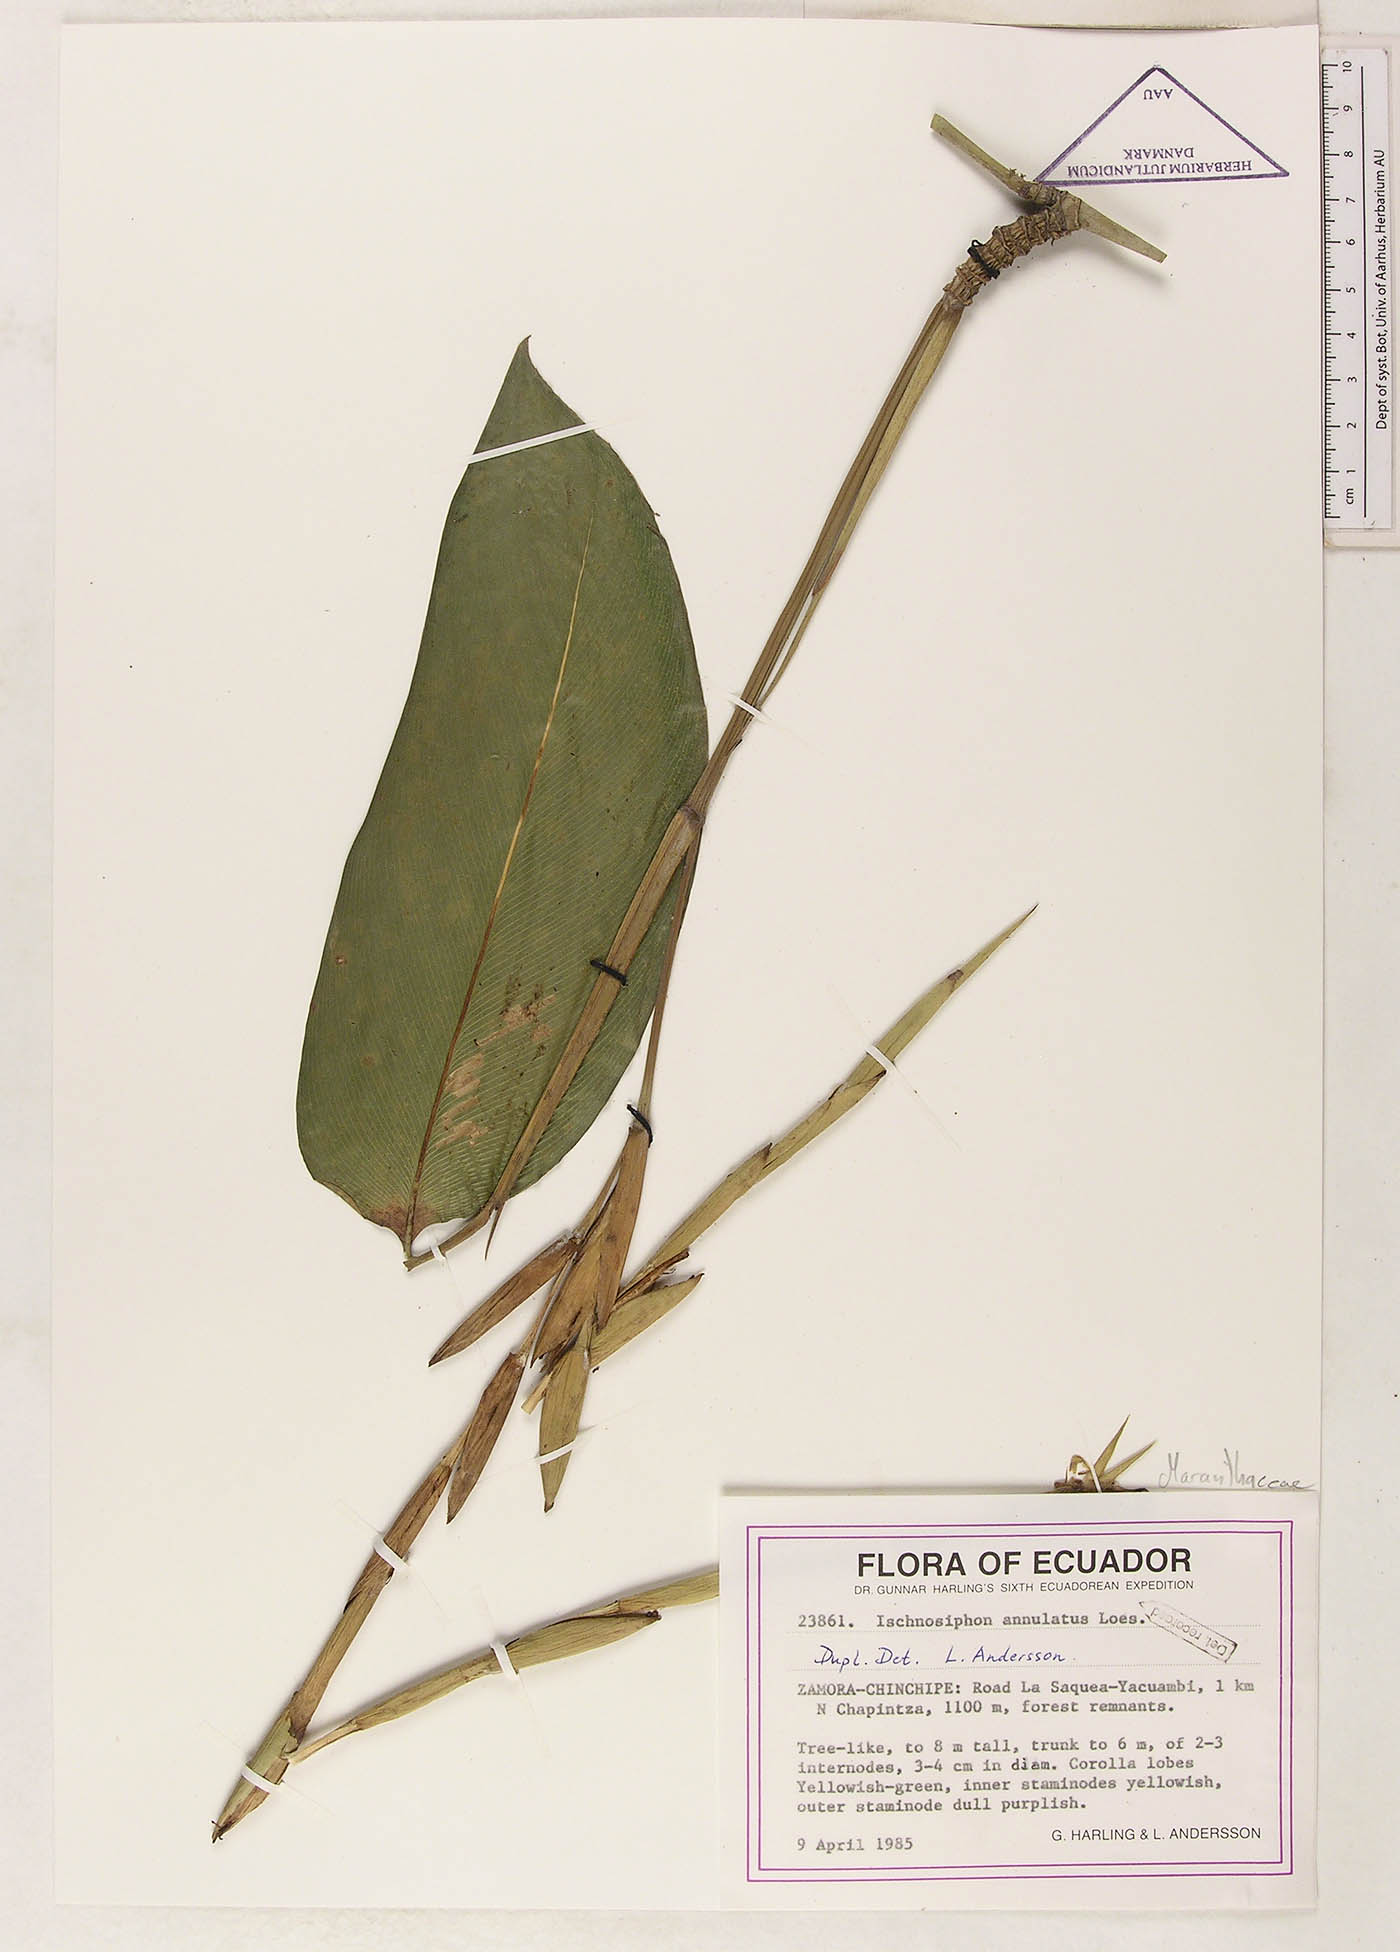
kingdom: Plantae
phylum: Tracheophyta
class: Liliopsida
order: Zingiberales
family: Marantaceae
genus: Ischnosiphon
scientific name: Ischnosiphon annulatus
